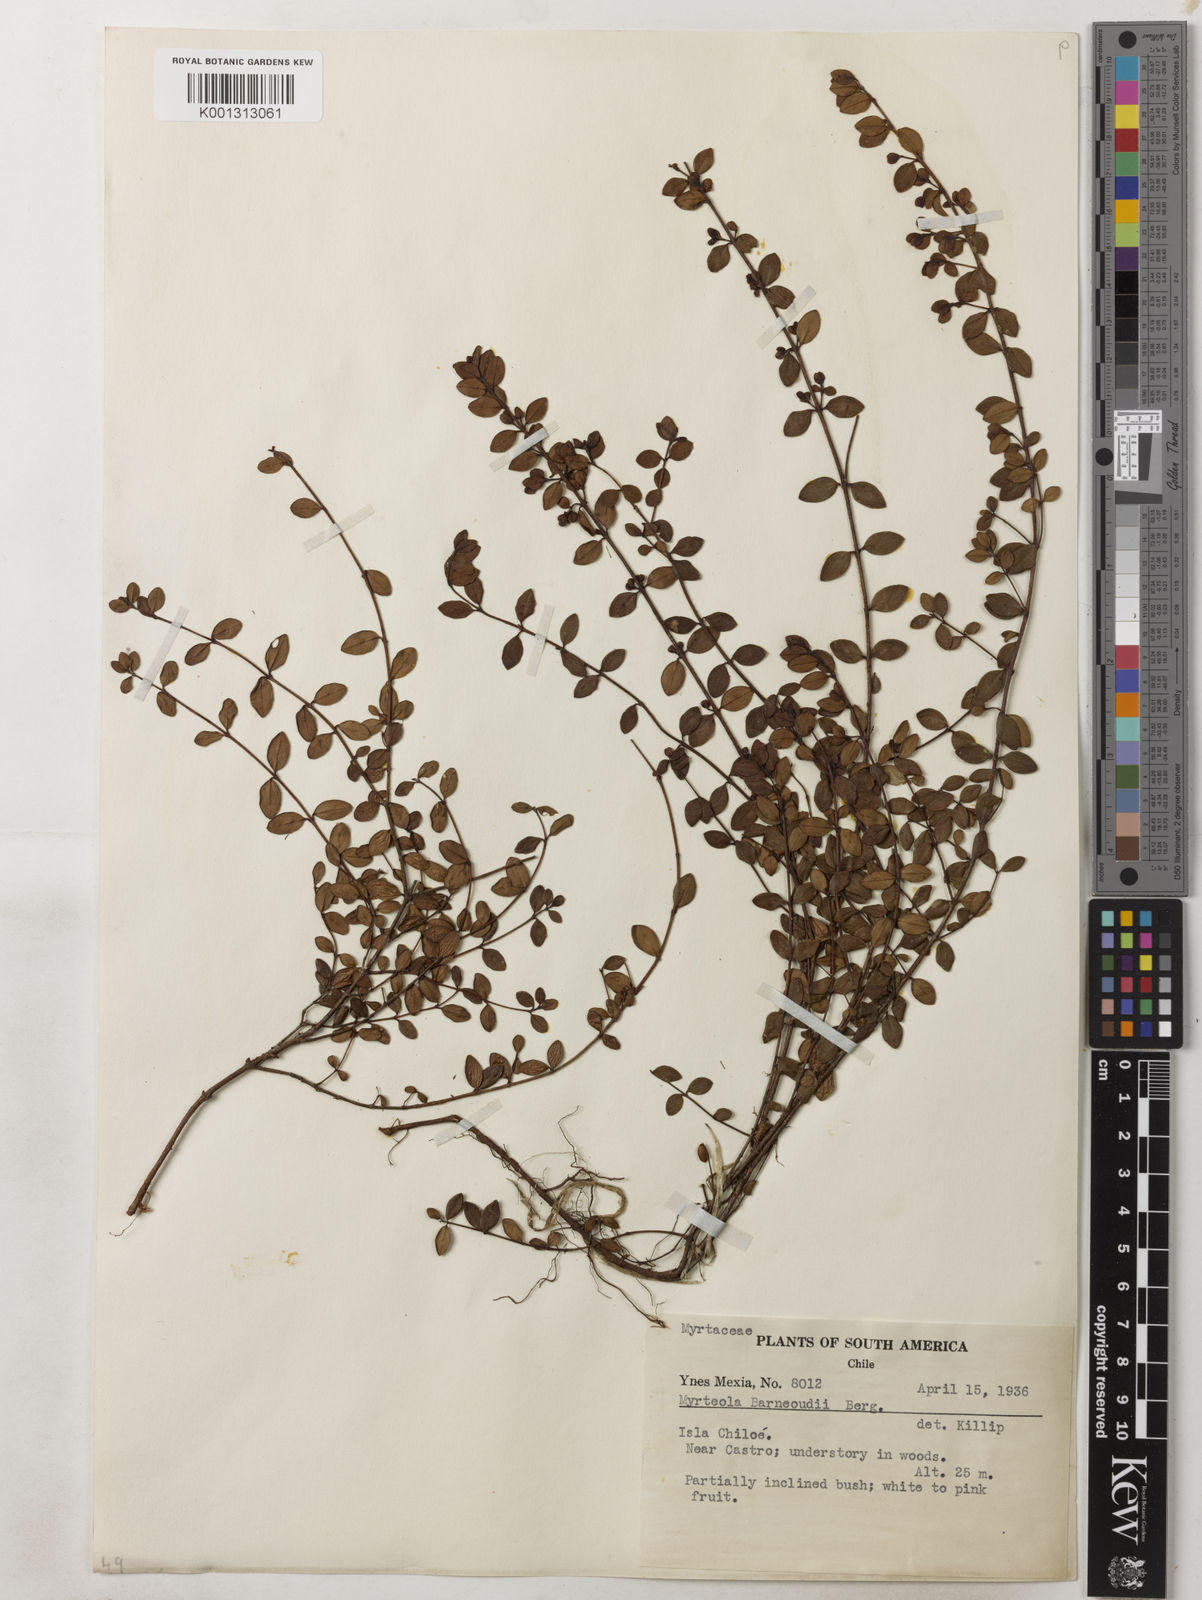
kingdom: Plantae
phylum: Tracheophyta
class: Magnoliopsida
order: Myrtales
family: Myrtaceae
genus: Myrteola
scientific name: Myrteola nummularia
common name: Cranberry-myrtle
